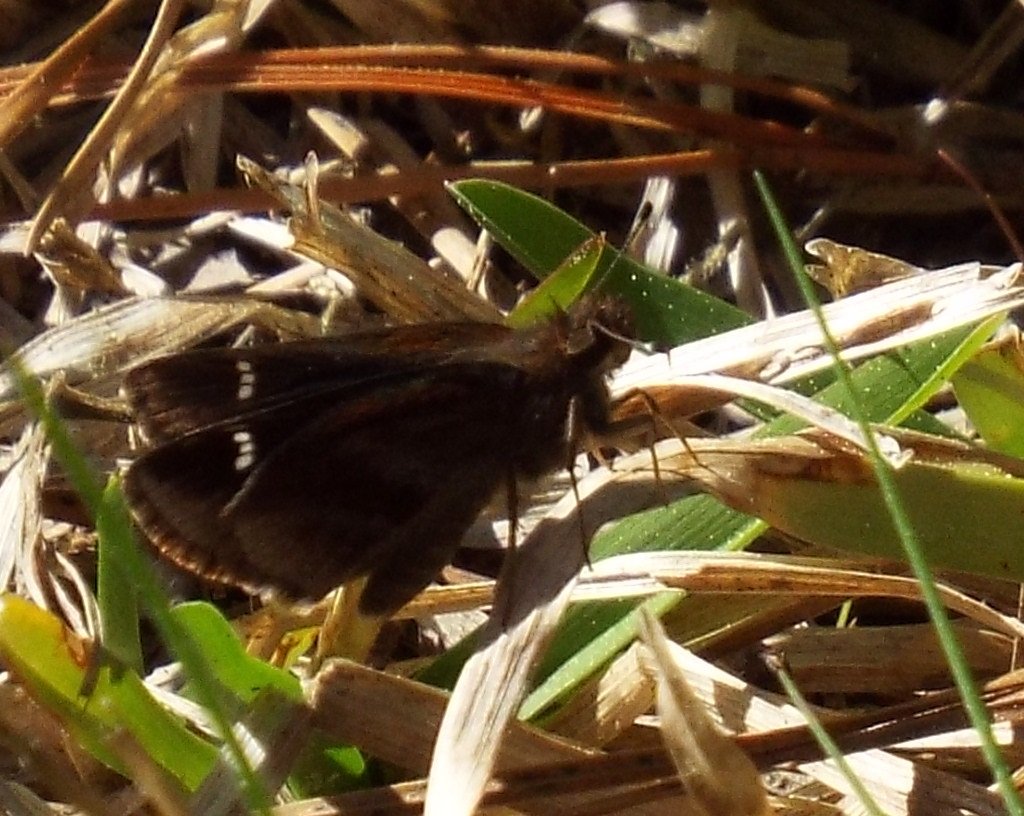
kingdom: Animalia
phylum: Arthropoda
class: Insecta
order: Lepidoptera
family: Hesperiidae
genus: Lerema
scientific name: Lerema accius
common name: Clouded Skipper
